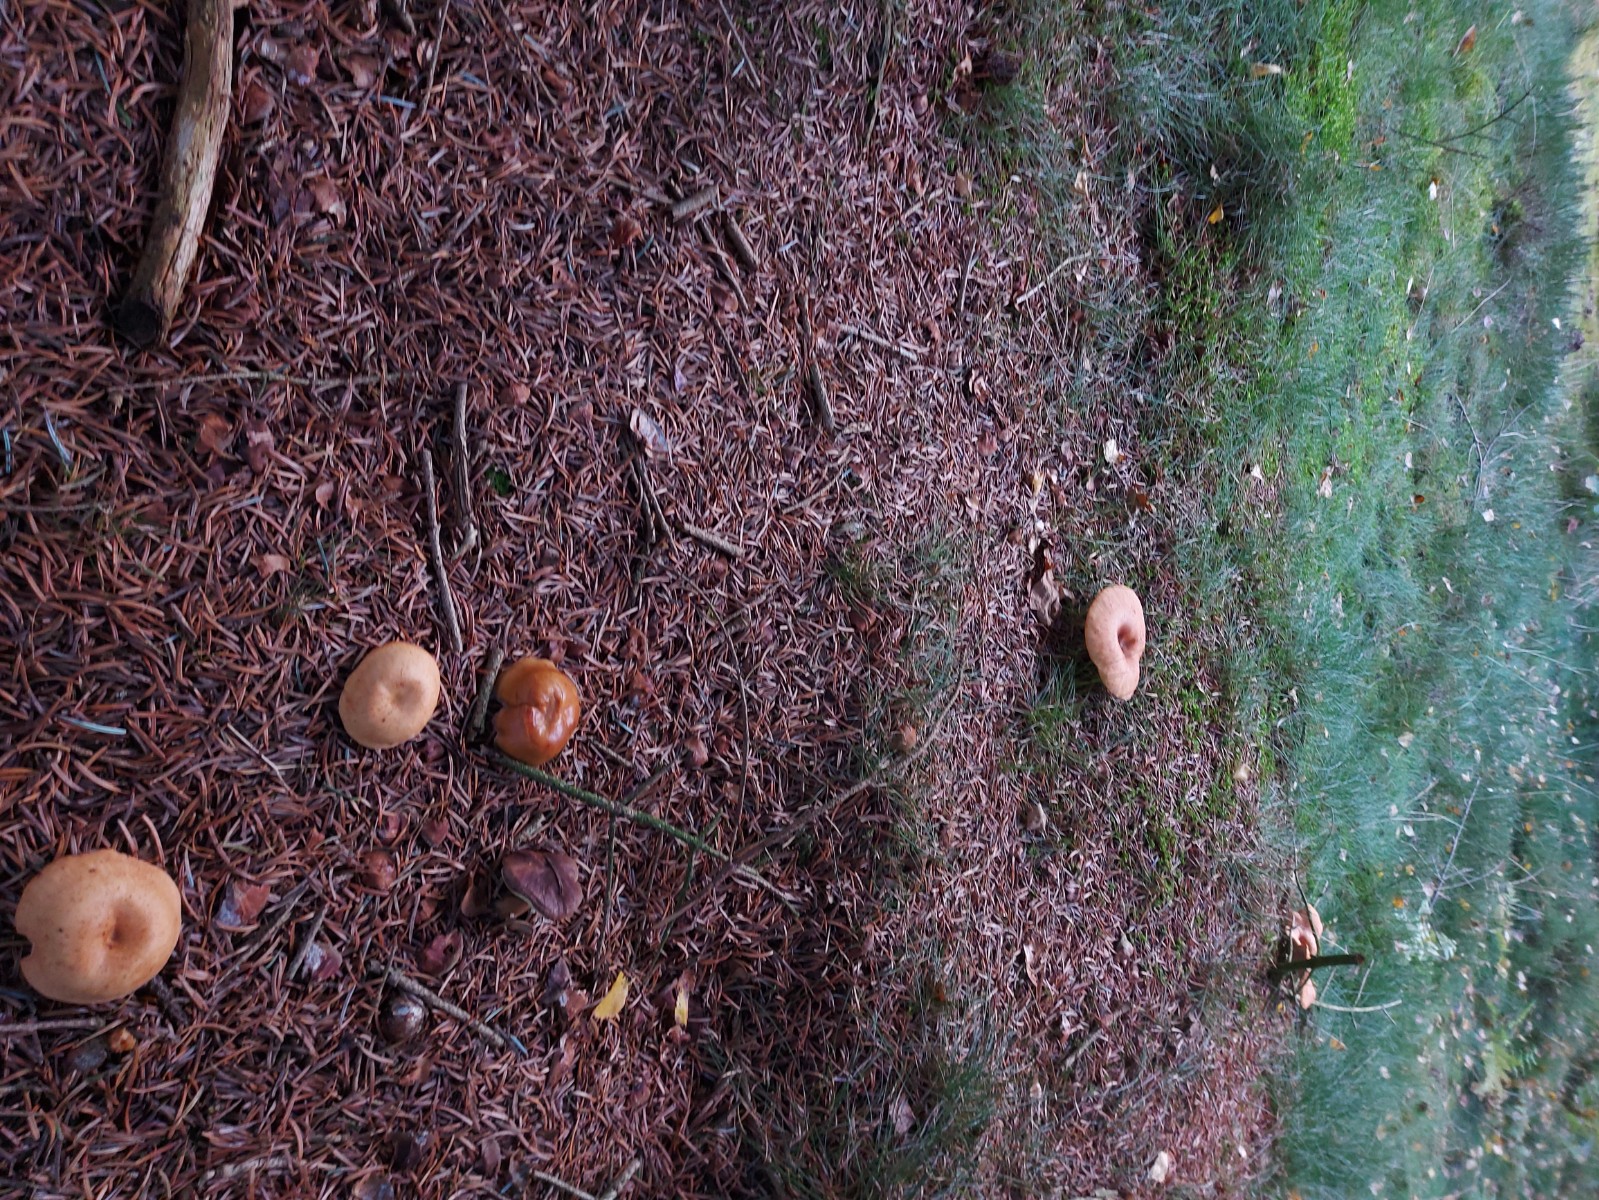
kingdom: Fungi
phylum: Basidiomycota
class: Agaricomycetes
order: Agaricales
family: Tricholomataceae
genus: Paralepista
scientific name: Paralepista flaccida
